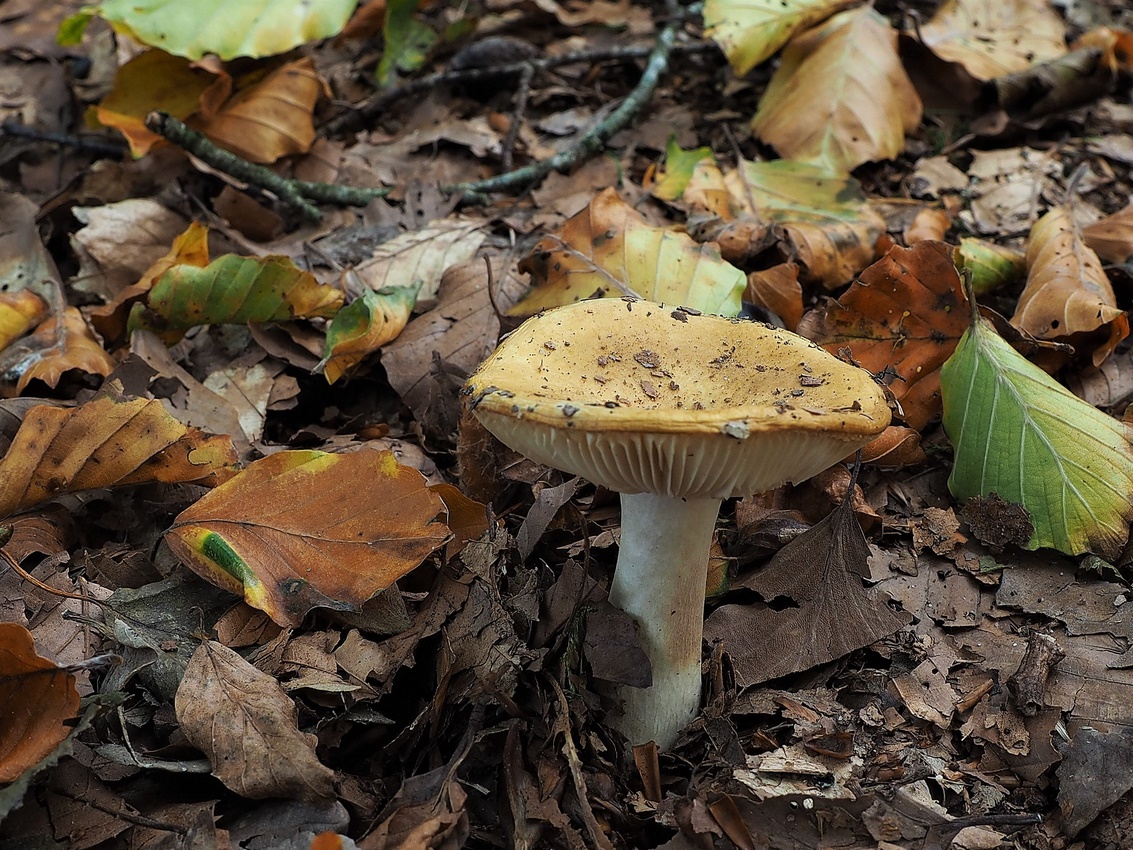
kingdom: Fungi
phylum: Basidiomycota
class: Agaricomycetes
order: Russulales
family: Russulaceae
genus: Russula
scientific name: Russula ochroleuca
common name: okkergul skørhat
